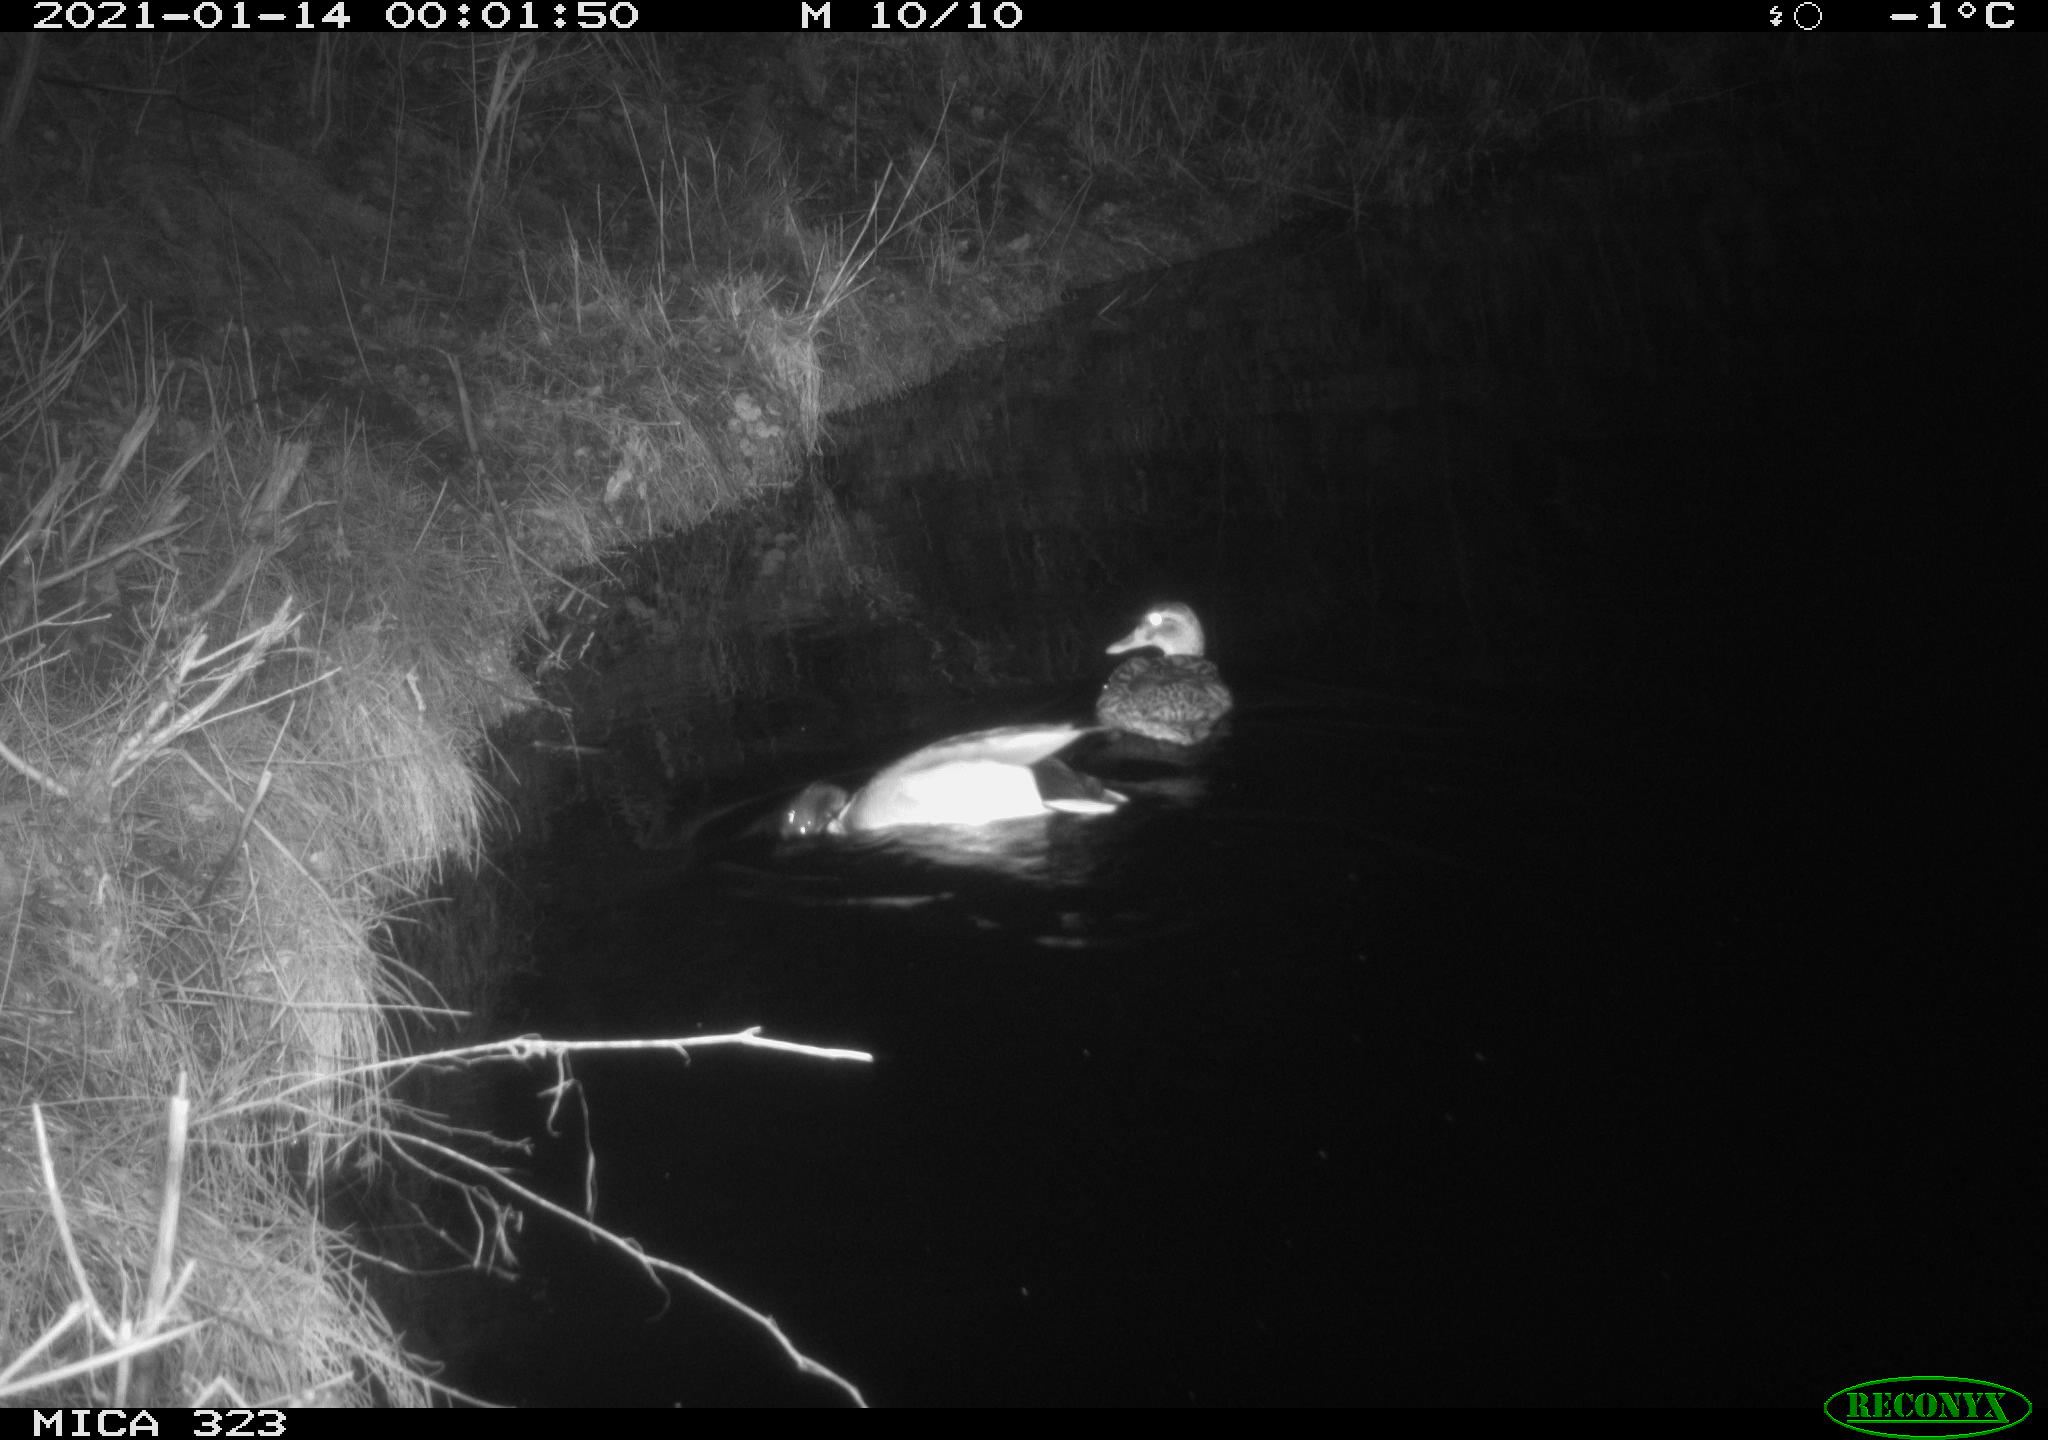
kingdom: Animalia
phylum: Chordata
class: Aves
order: Anseriformes
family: Anatidae
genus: Anas
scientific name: Anas platyrhynchos
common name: Mallard
